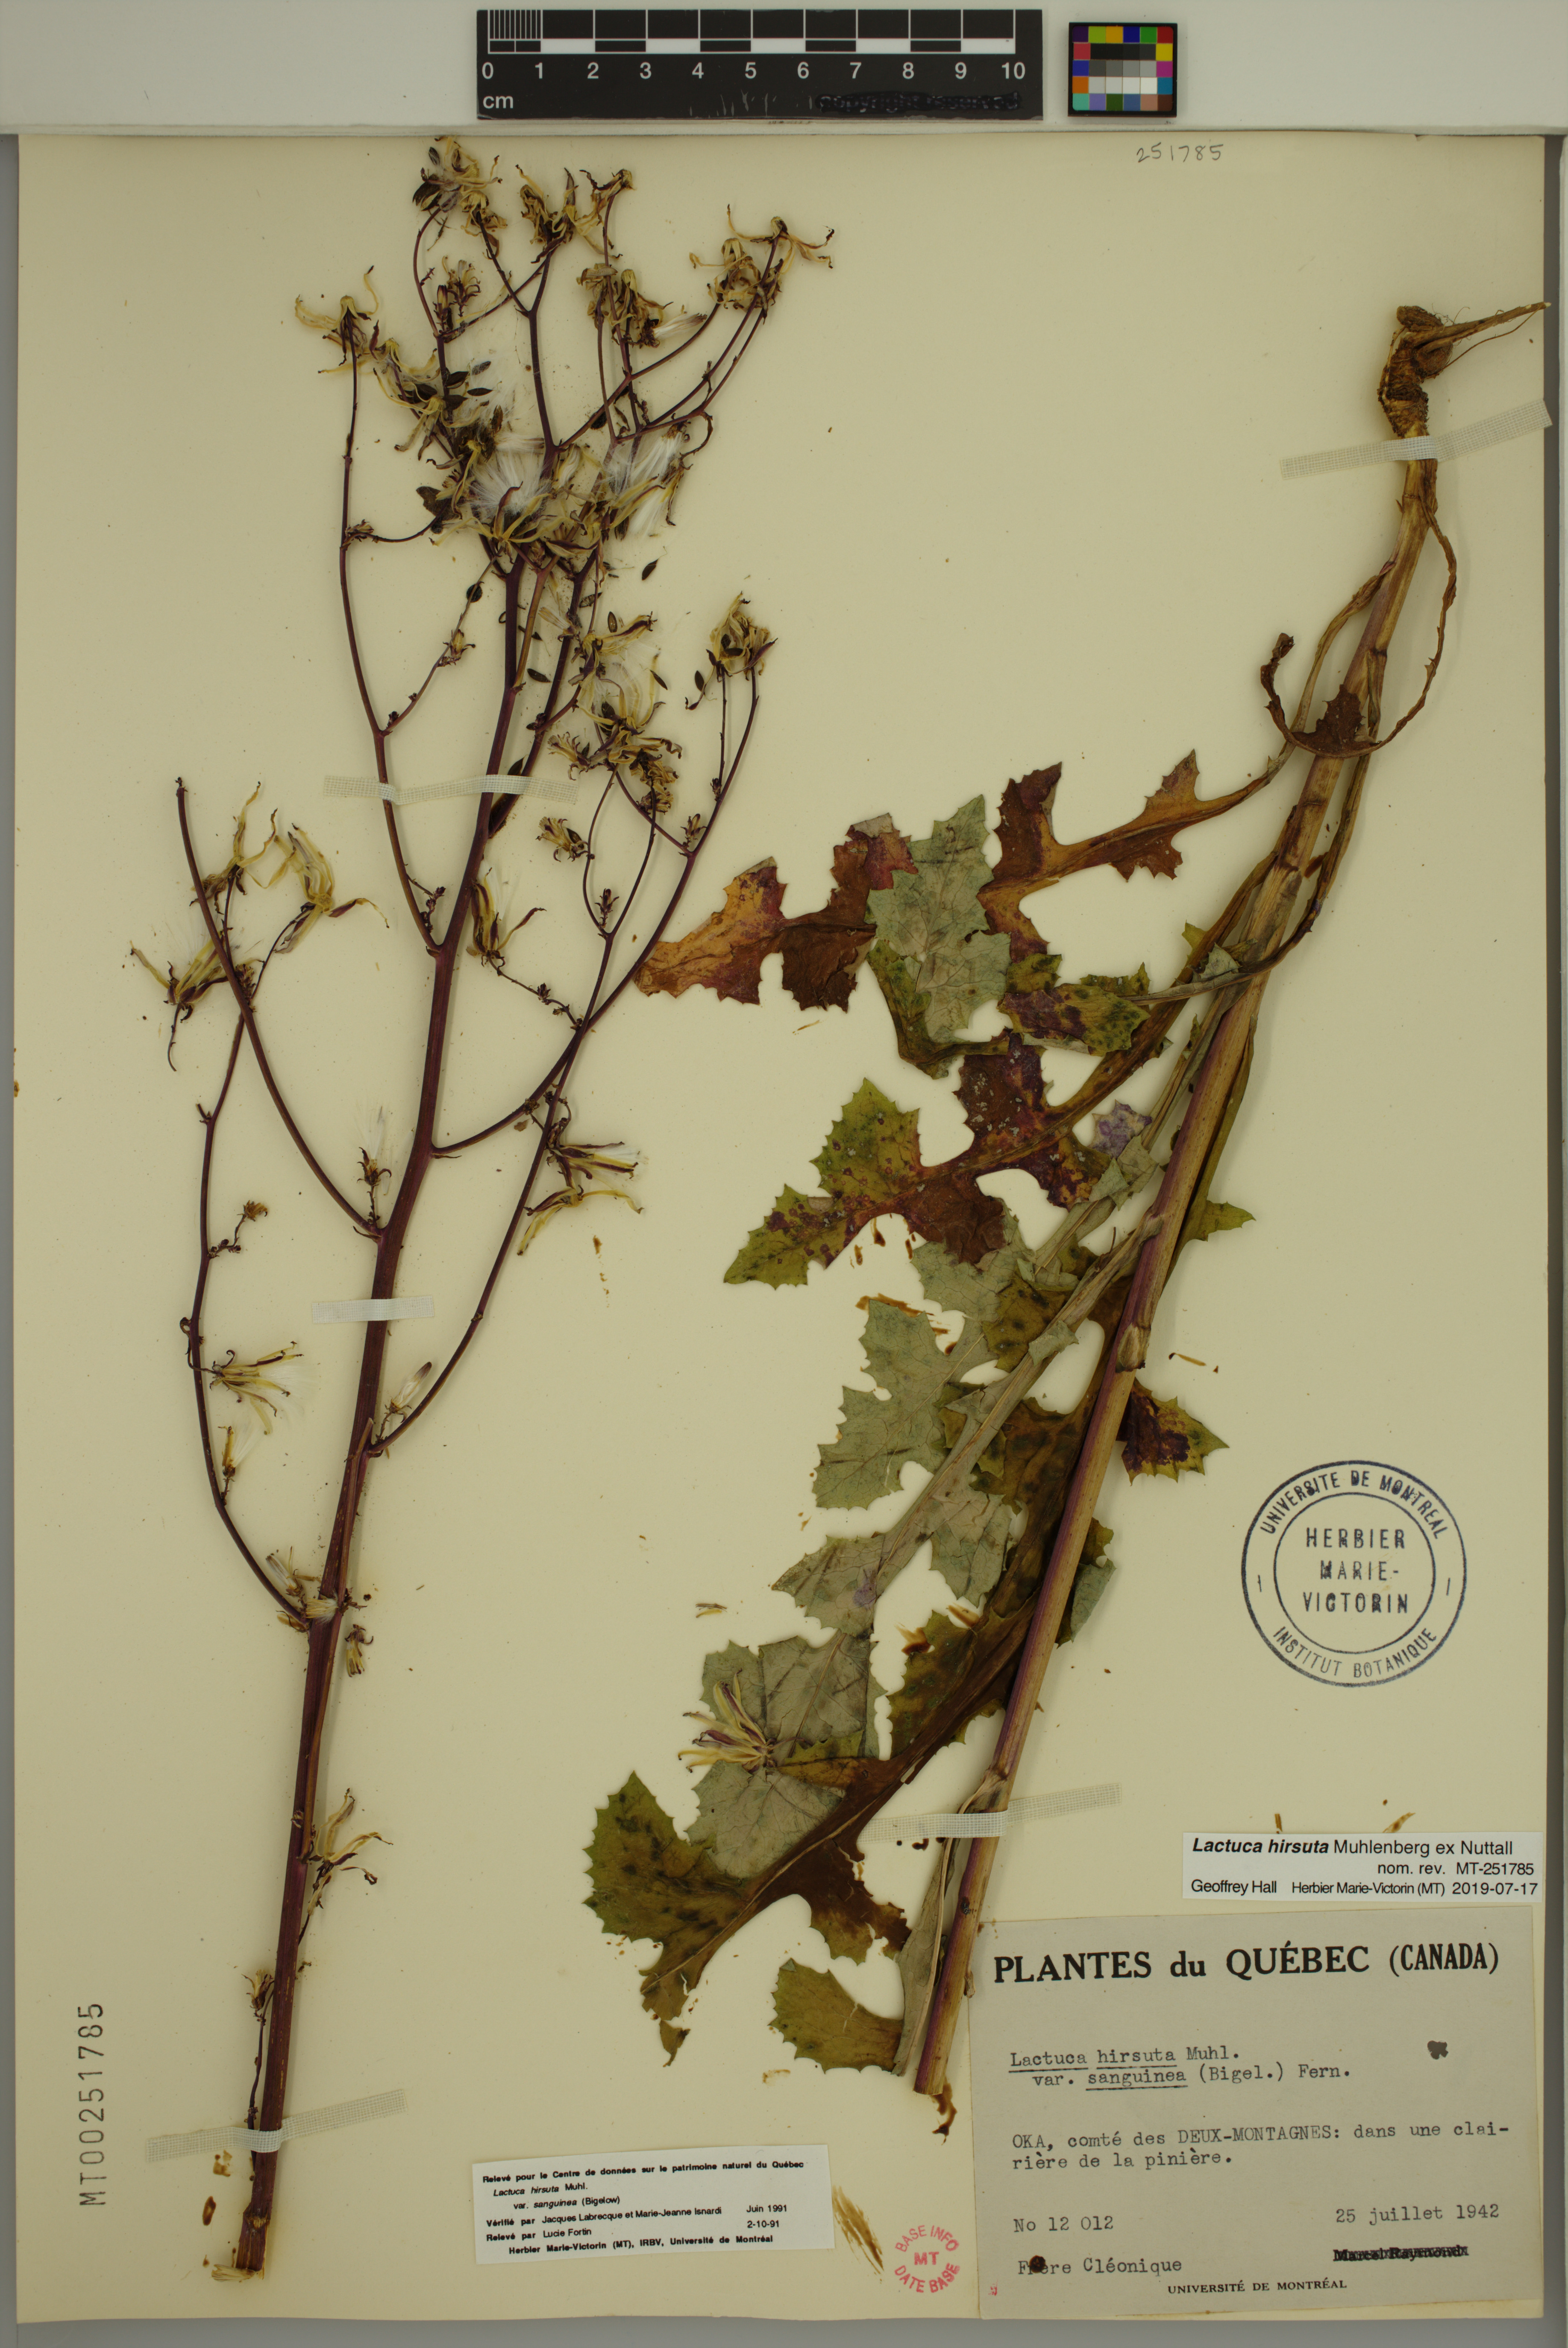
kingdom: Plantae
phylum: Tracheophyta
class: Magnoliopsida
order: Asterales
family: Asteraceae
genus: Lactuca
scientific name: Lactuca hirsuta
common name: Hairy lettuce
